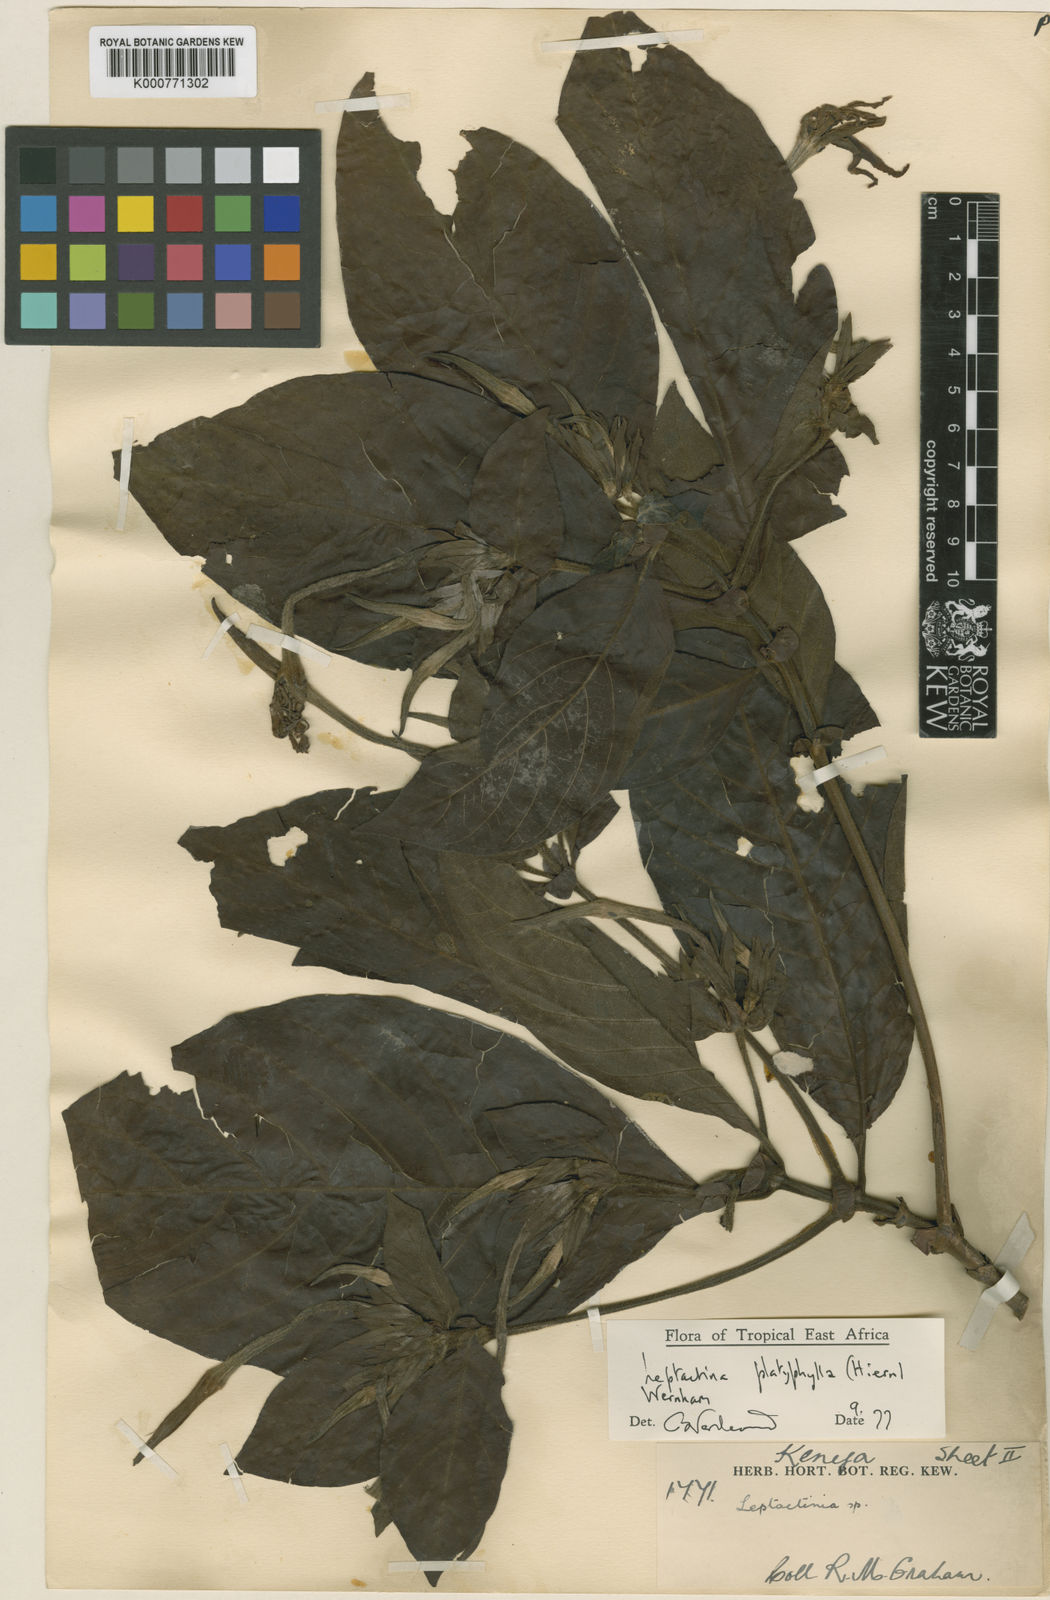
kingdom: Plantae
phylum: Tracheophyta
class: Magnoliopsida
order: Gentianales
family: Rubiaceae
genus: Leptactina
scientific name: Leptactina platyphylla
